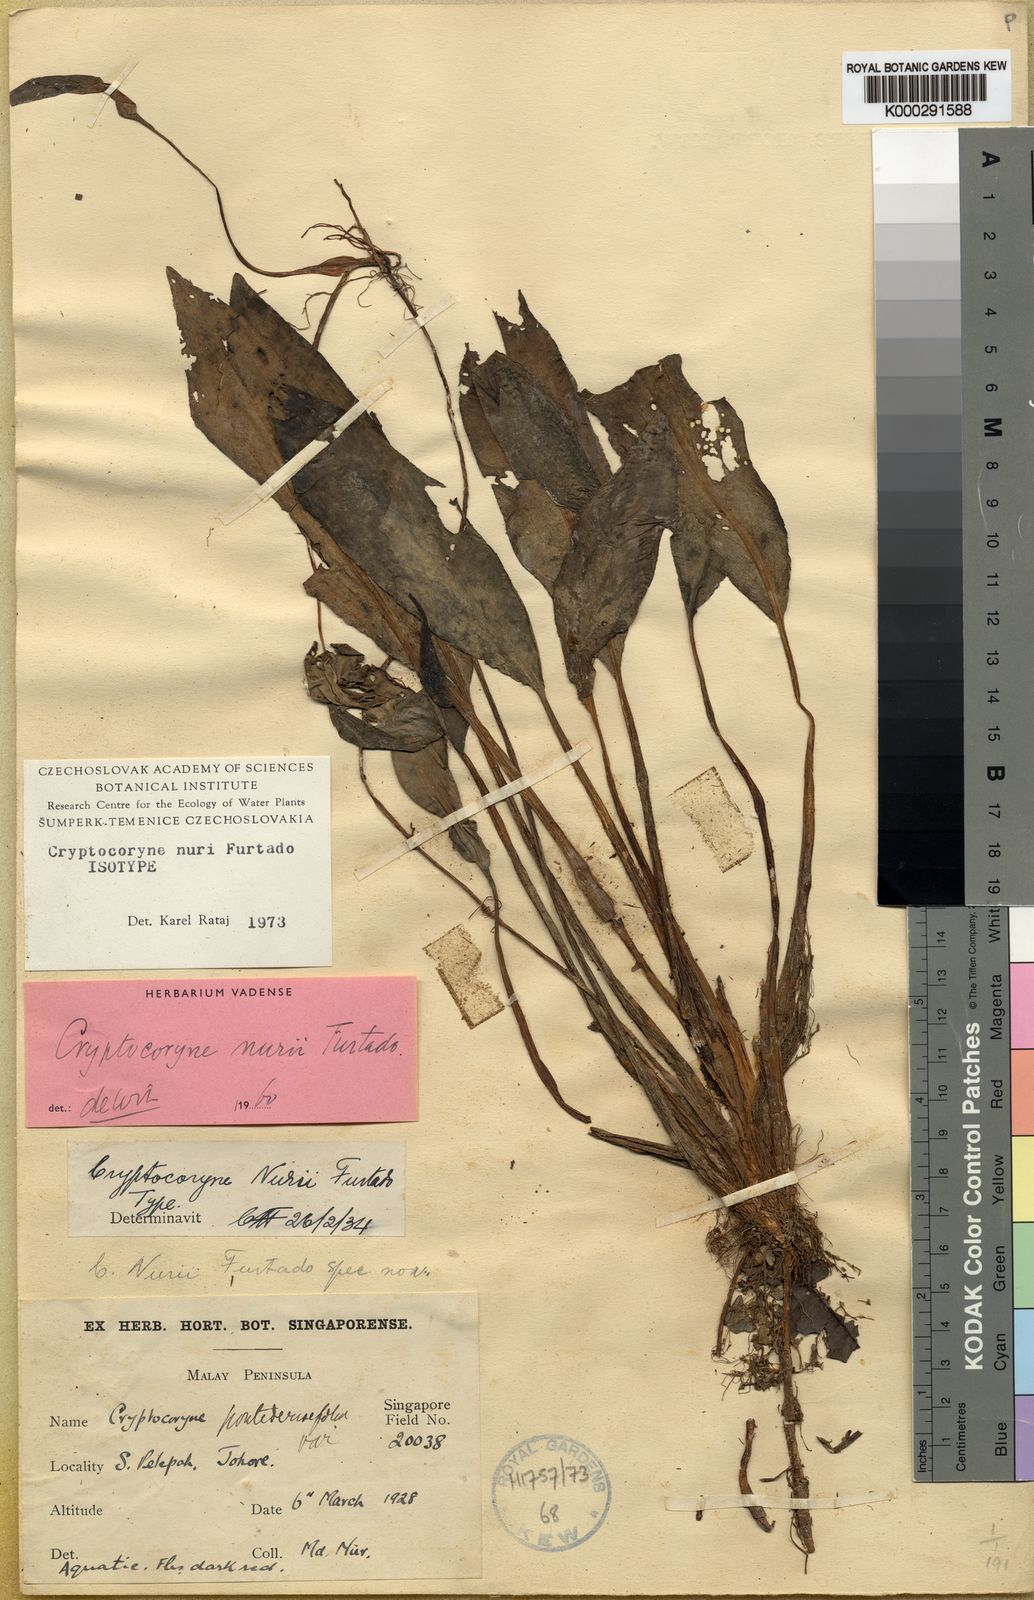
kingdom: Plantae
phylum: Tracheophyta
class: Liliopsida
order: Alismatales
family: Araceae
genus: Cryptocoryne
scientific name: Cryptocoryne nurii
